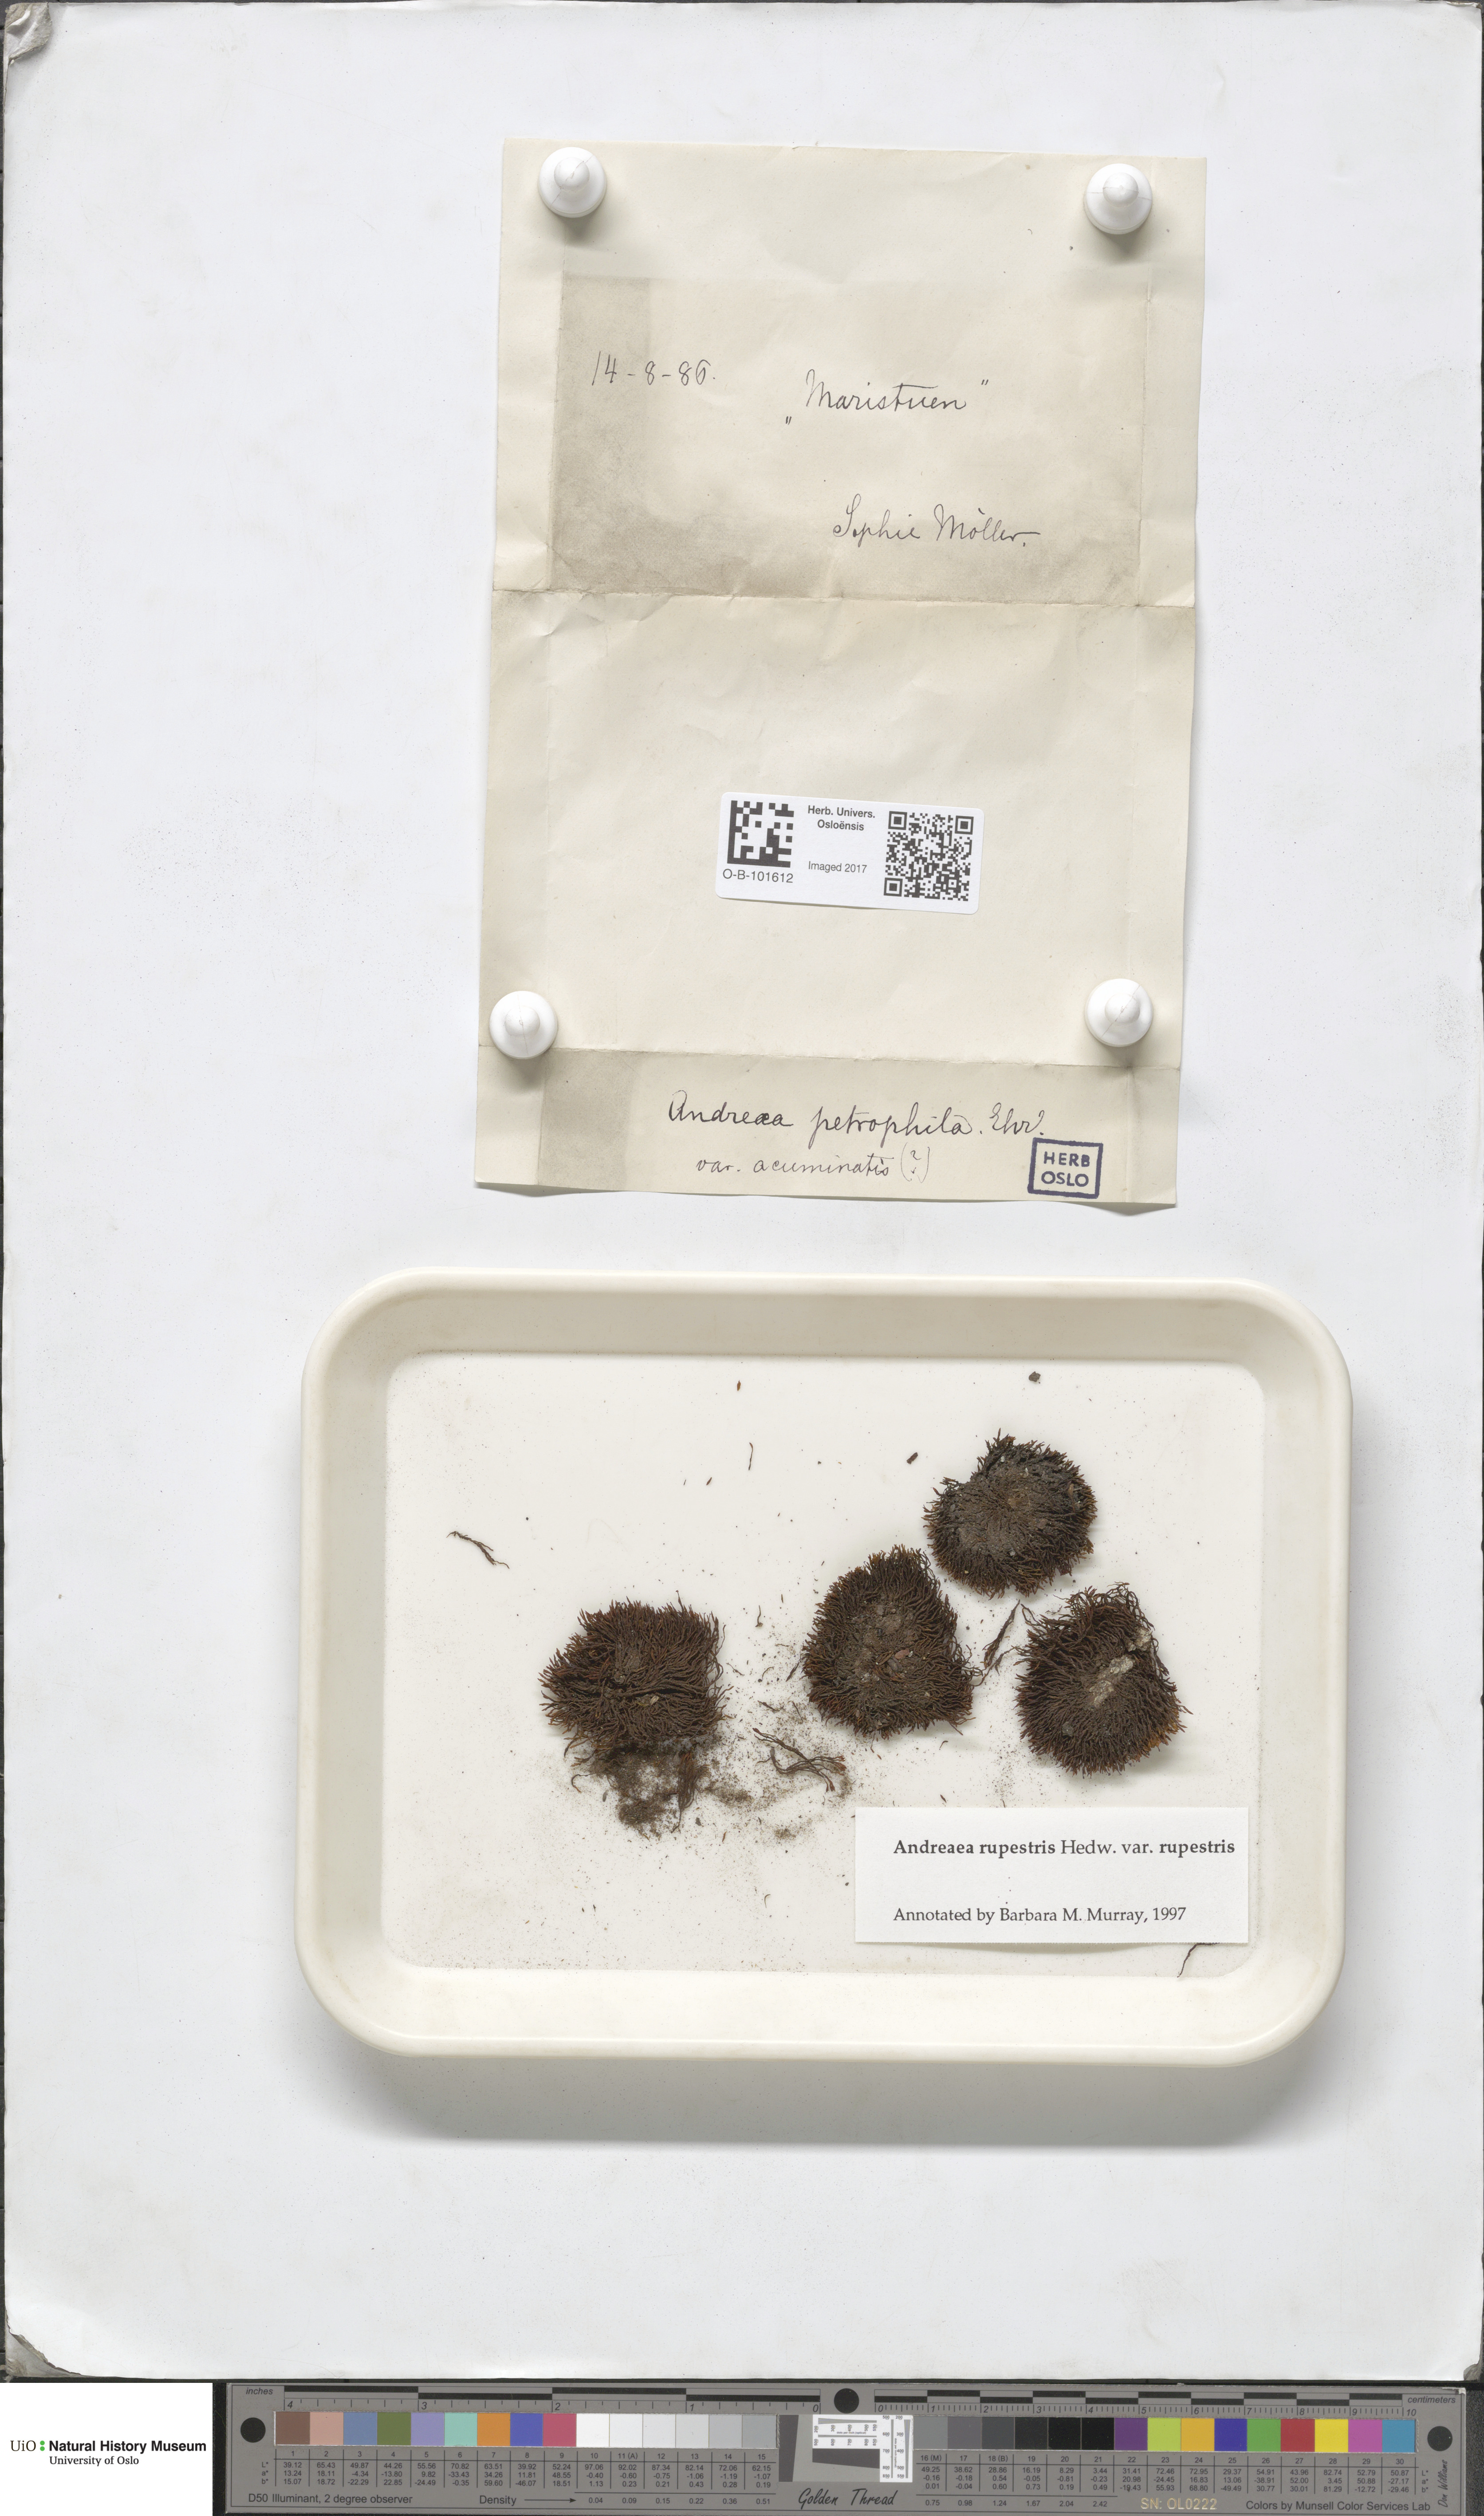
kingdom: Plantae
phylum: Bryophyta
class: Andreaeopsida
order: Andreaeales
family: Andreaeaceae
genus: Andreaea
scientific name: Andreaea rupestris
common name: Black rock moss
